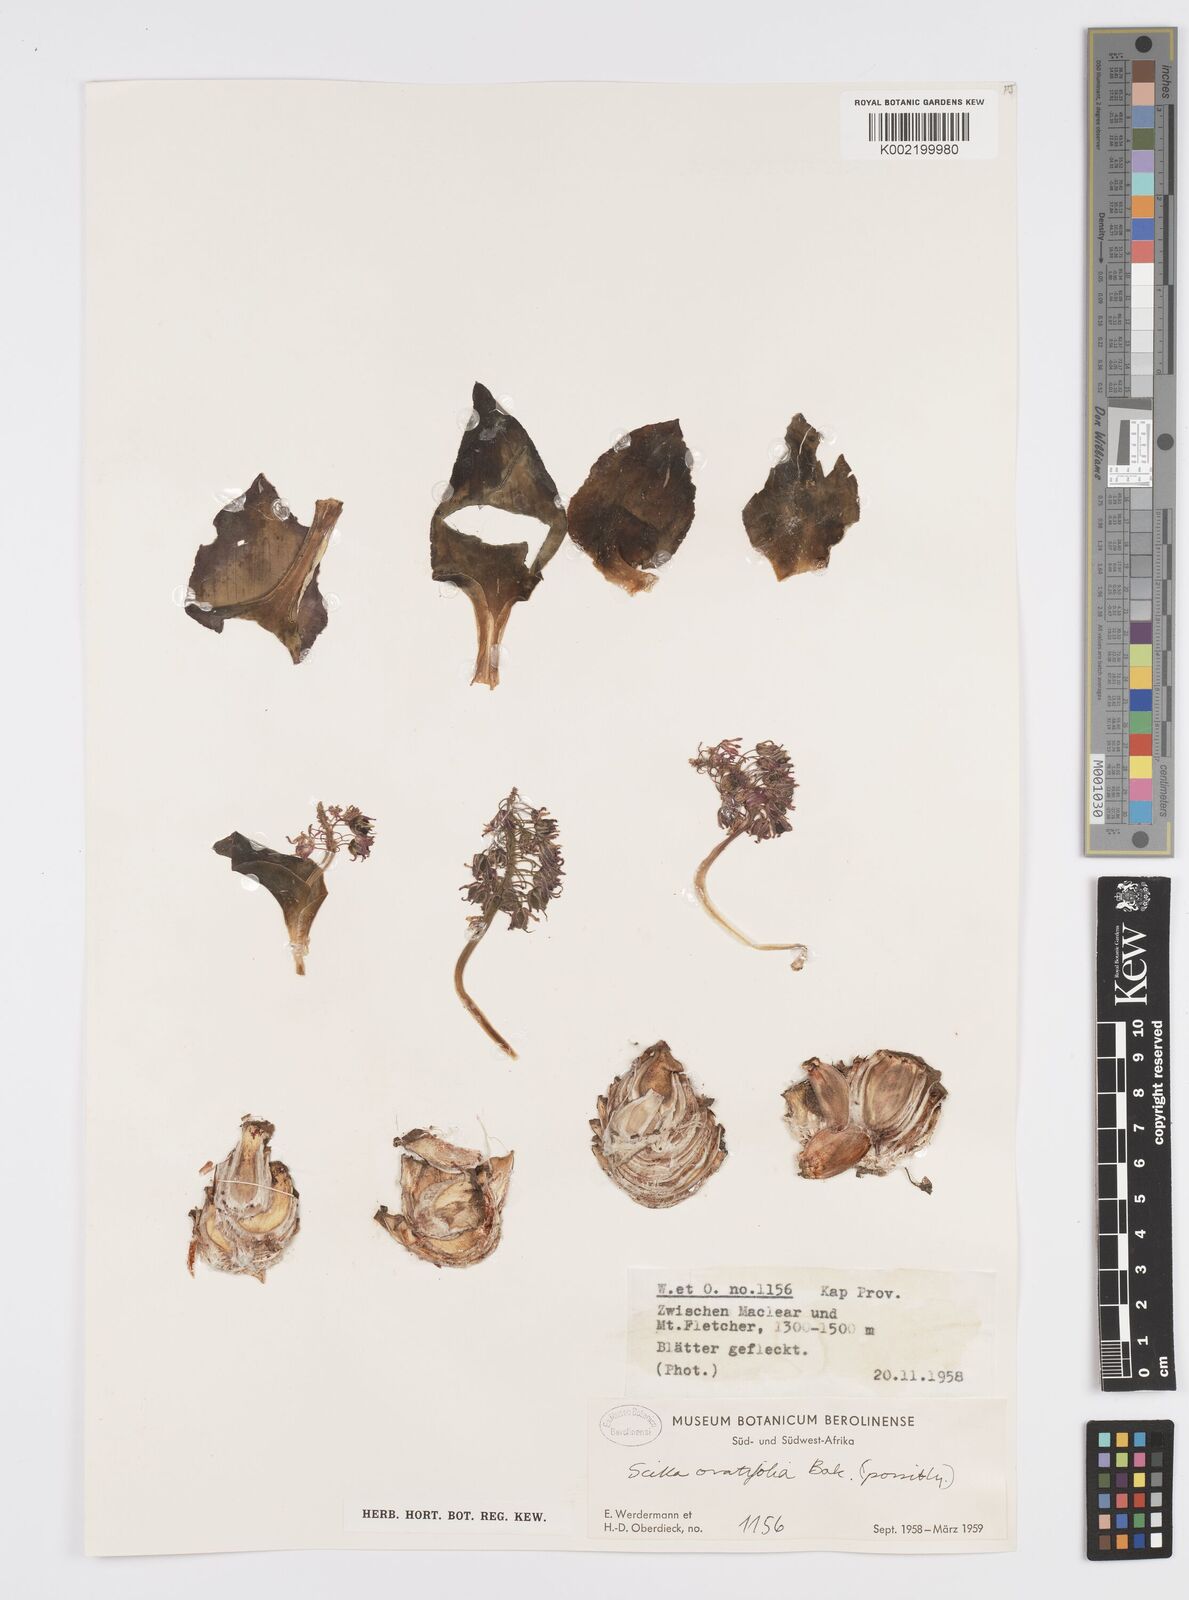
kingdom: Plantae
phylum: Tracheophyta
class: Liliopsida
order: Asparagales
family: Asparagaceae
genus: Ledebouria
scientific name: Ledebouria ovatifolia
